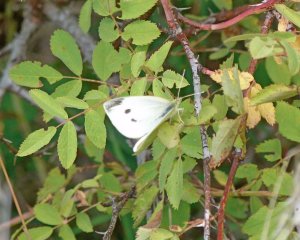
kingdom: Animalia
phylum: Arthropoda
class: Insecta
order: Lepidoptera
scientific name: Lepidoptera
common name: Butterflies
